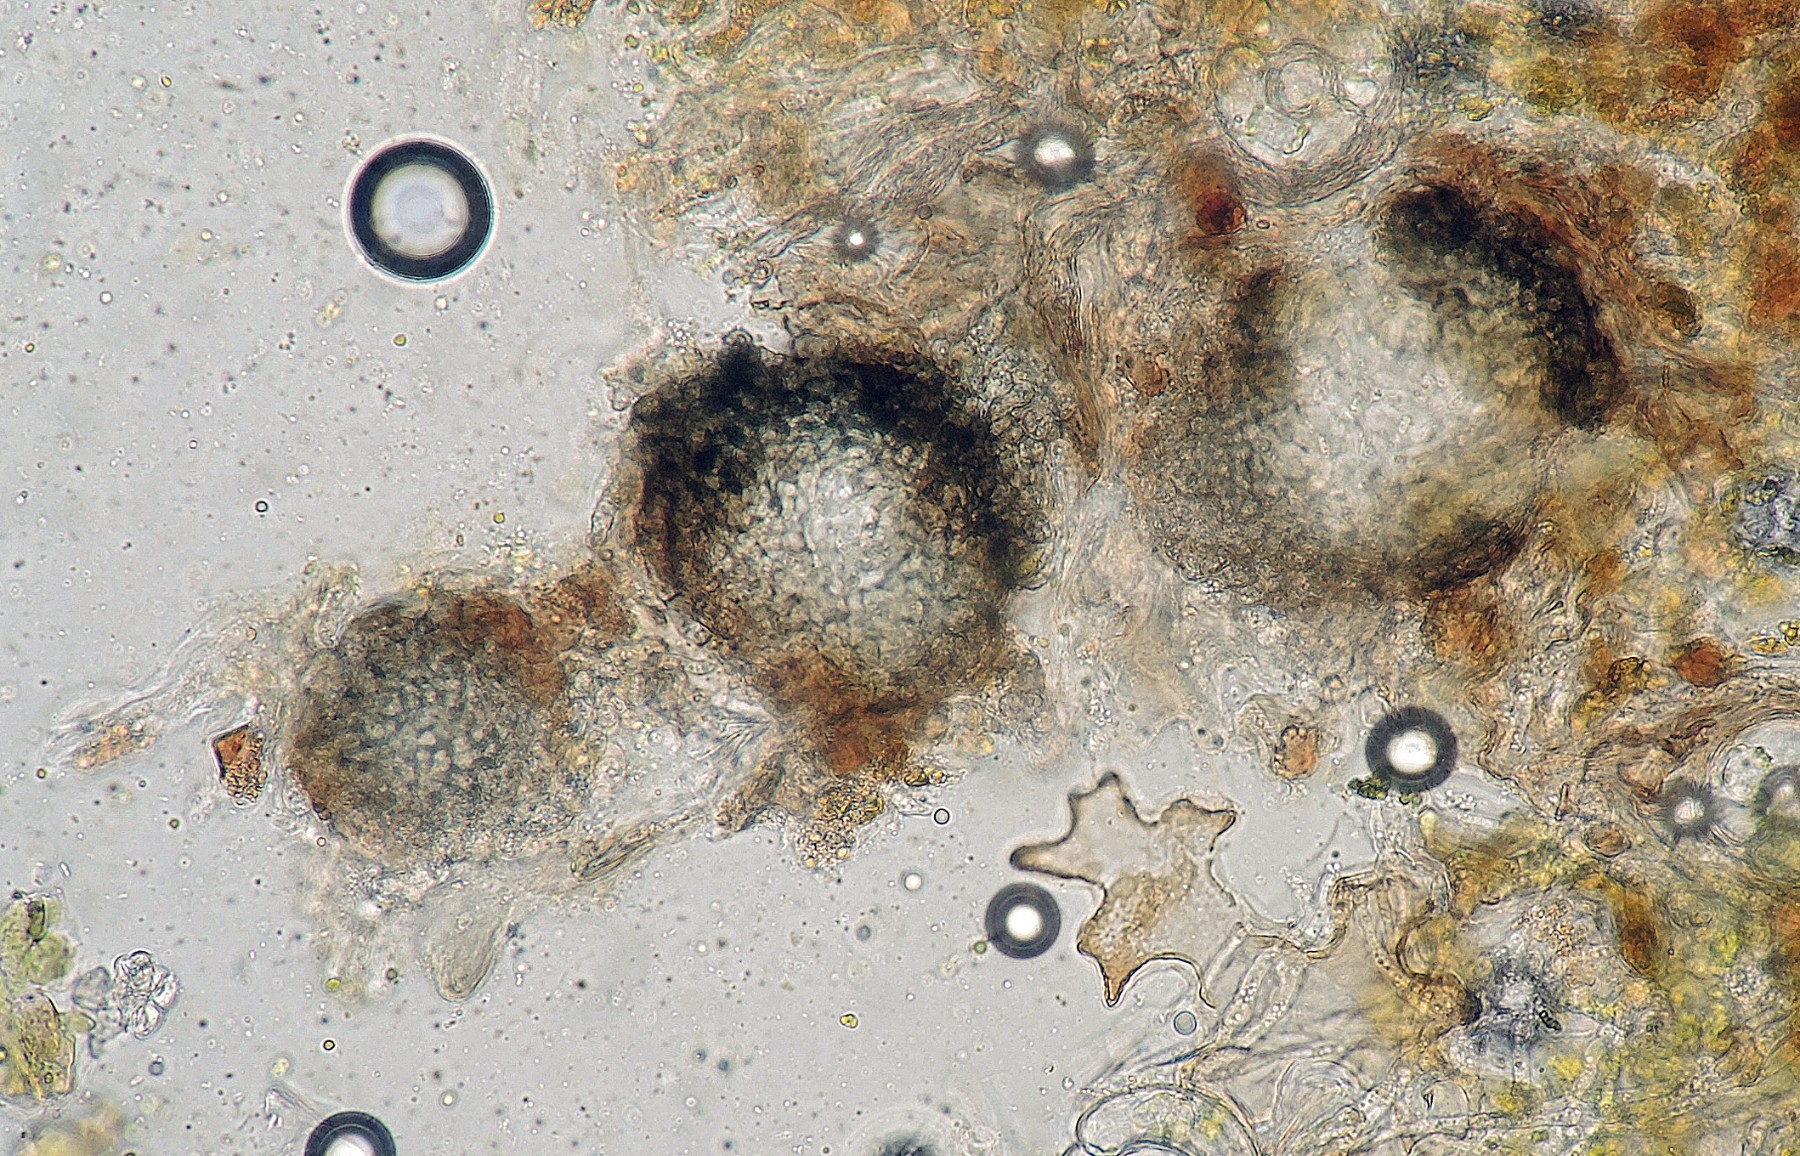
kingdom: Fungi
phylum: Chytridiomycota
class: Chytridiomycetes
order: Chytridiales
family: Synchytriaceae
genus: Synchytrium
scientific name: Synchytrium anemones
